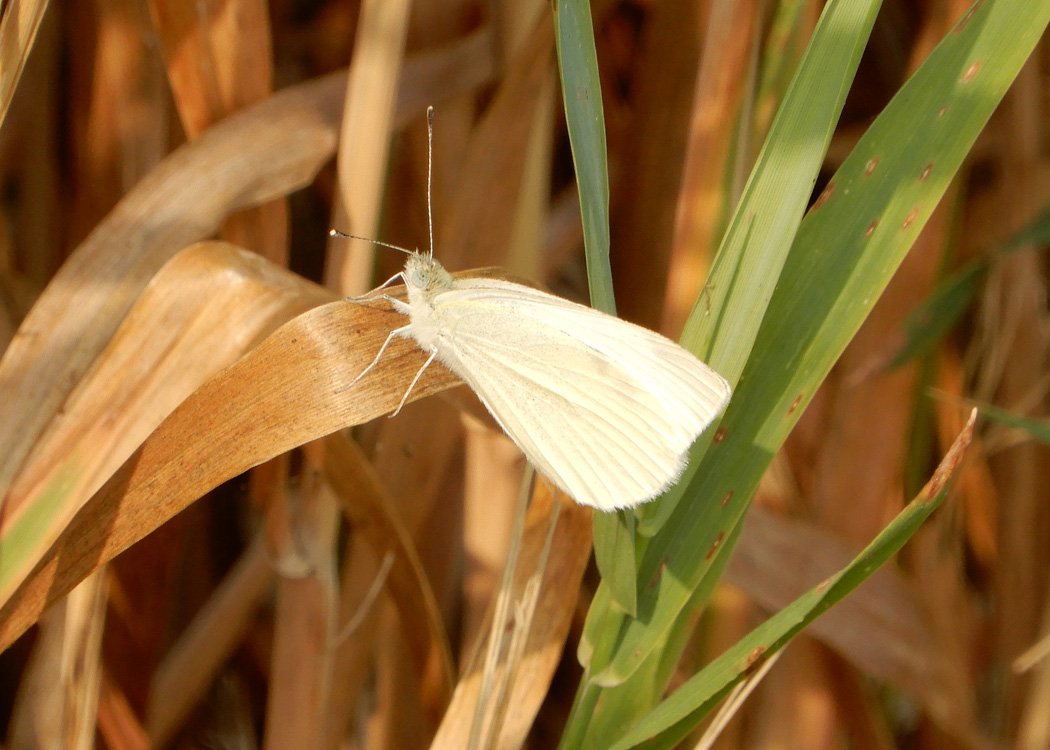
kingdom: Animalia
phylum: Arthropoda
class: Insecta
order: Lepidoptera
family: Pieridae
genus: Pieris
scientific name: Pieris rapae
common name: Cabbage White
